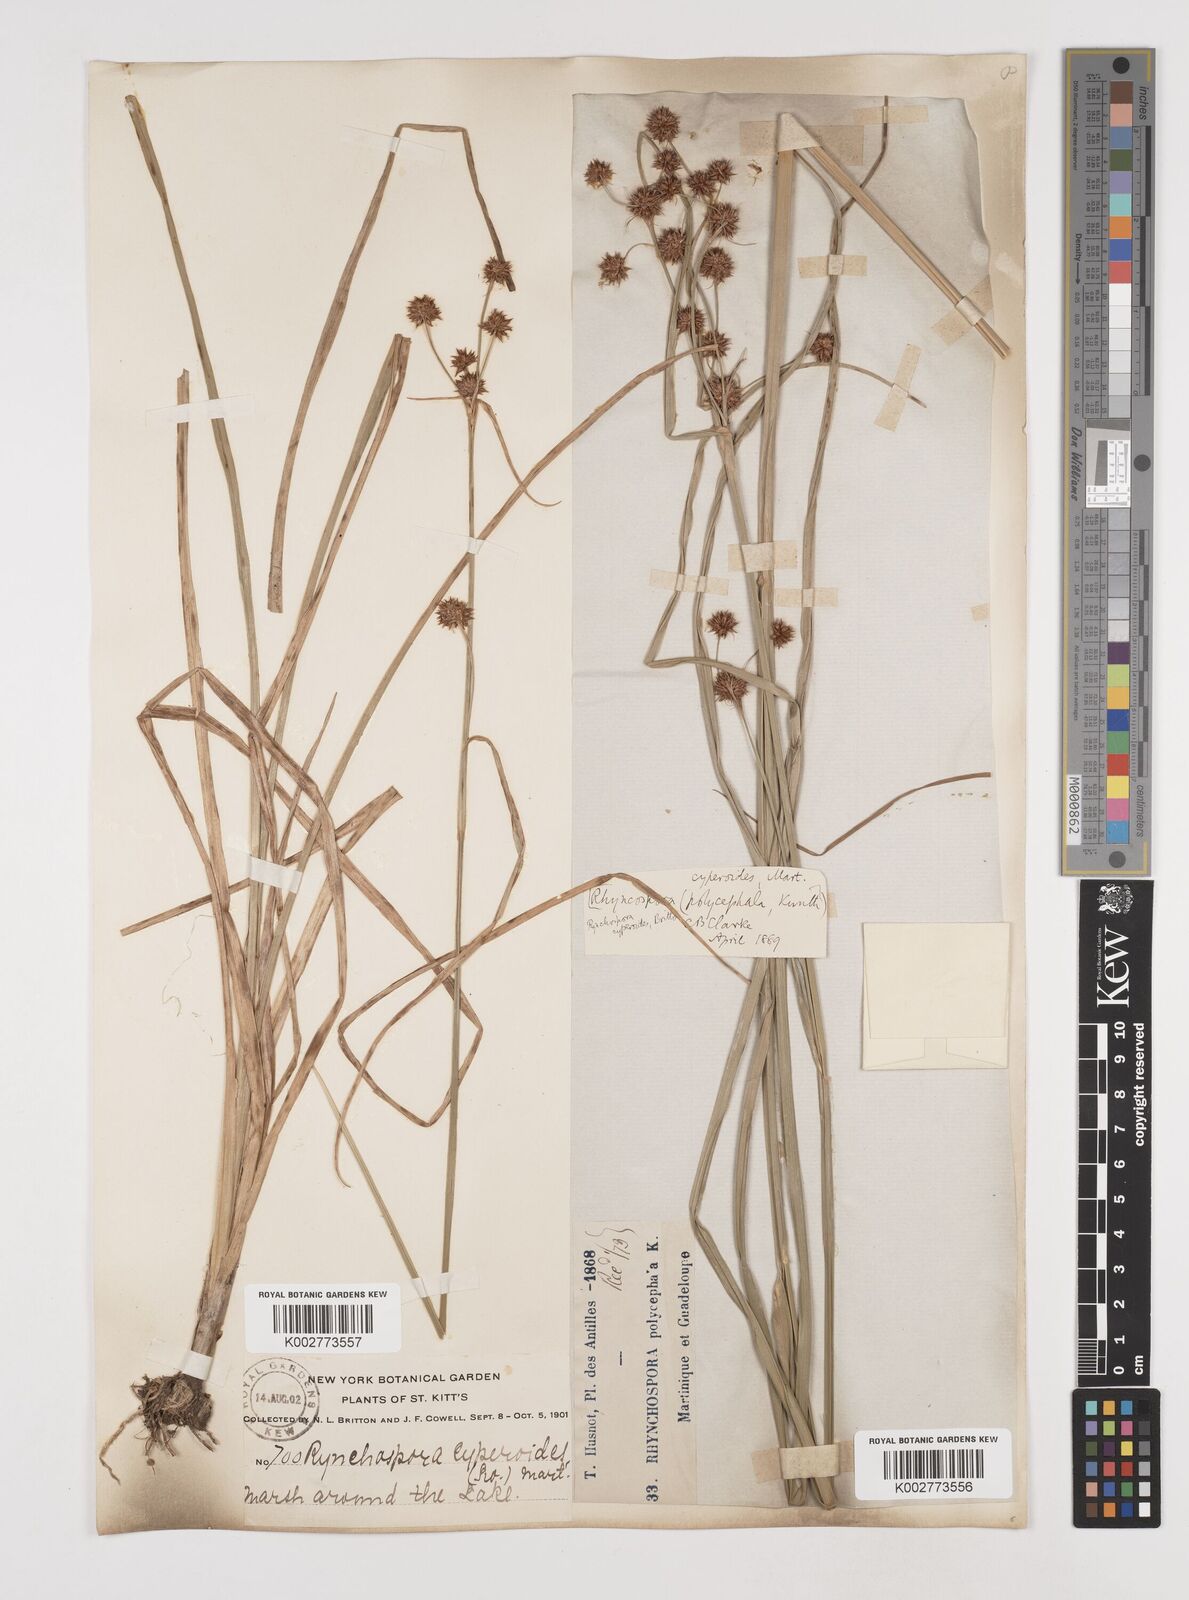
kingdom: Plantae
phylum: Tracheophyta
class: Liliopsida
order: Poales
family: Cyperaceae
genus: Rhynchospora
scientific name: Rhynchospora holoschoenoides
